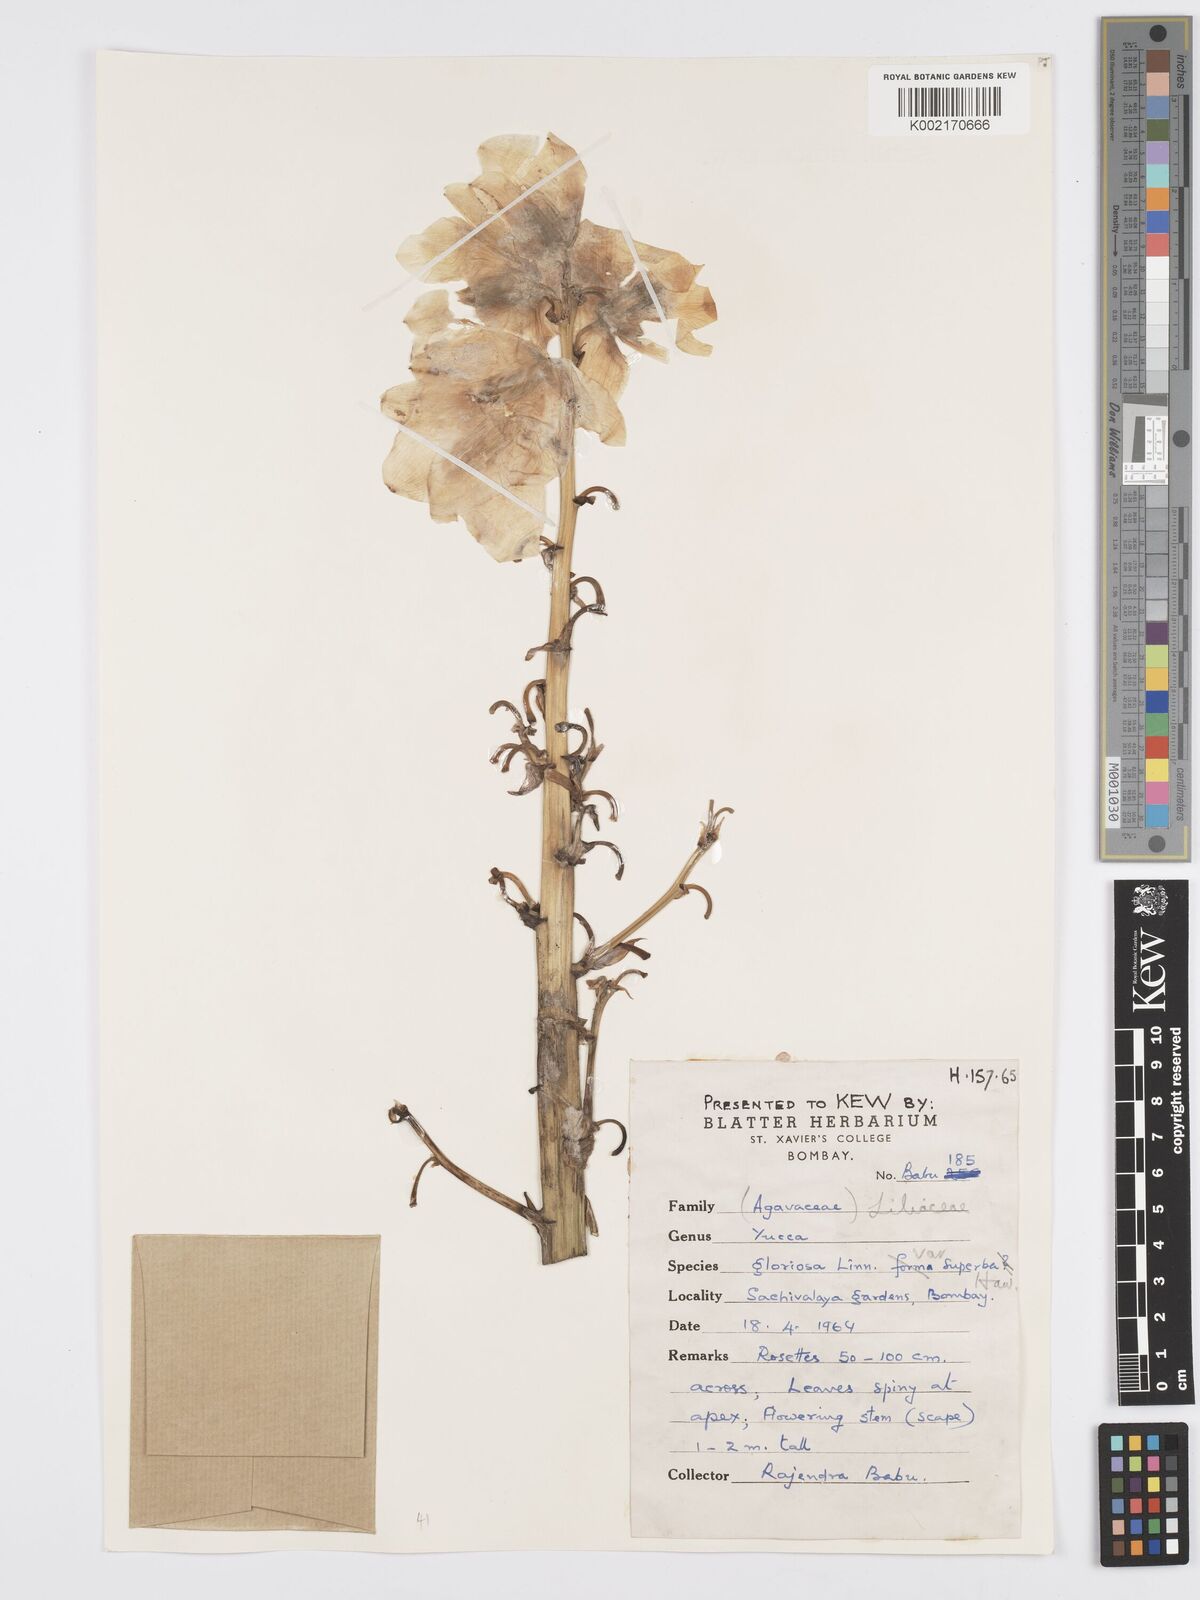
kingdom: Plantae
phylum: Tracheophyta
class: Liliopsida
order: Asparagales
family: Asparagaceae
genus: Yucca
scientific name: Yucca gloriosa
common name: Spanish-dagger
